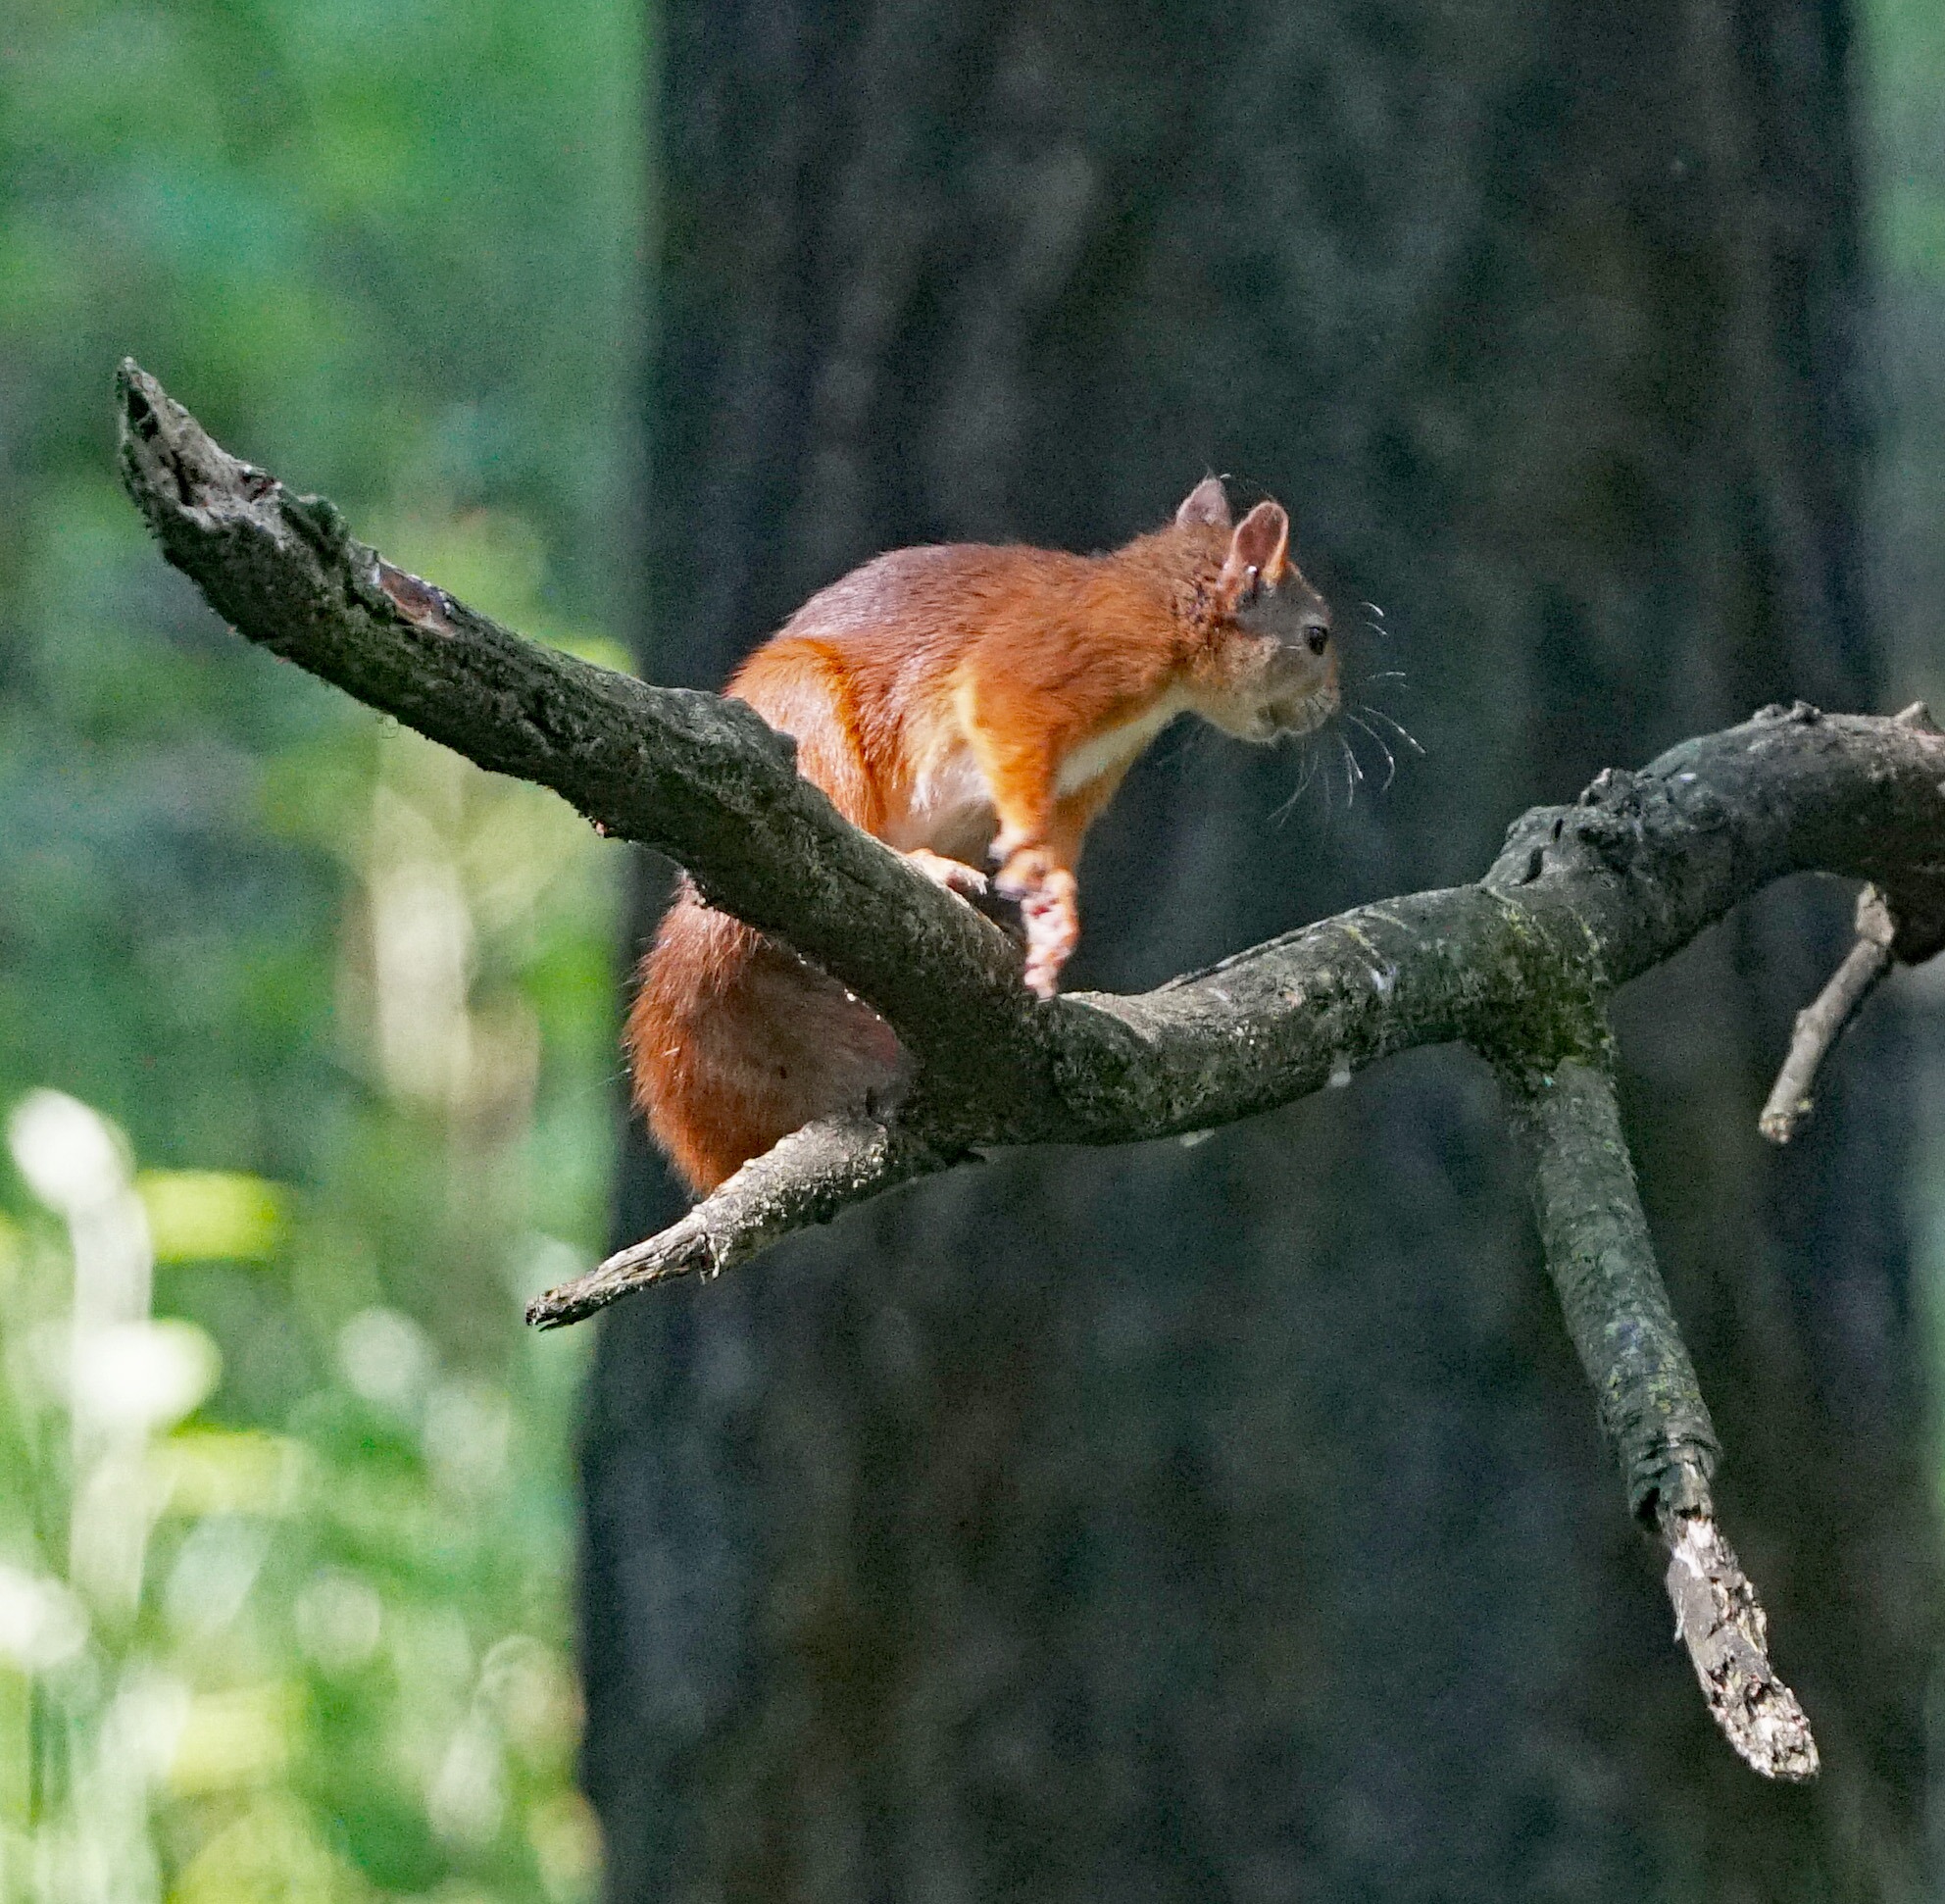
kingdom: Animalia
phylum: Chordata
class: Mammalia
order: Rodentia
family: Sciuridae
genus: Sciurus
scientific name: Sciurus vulgaris
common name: Egern
